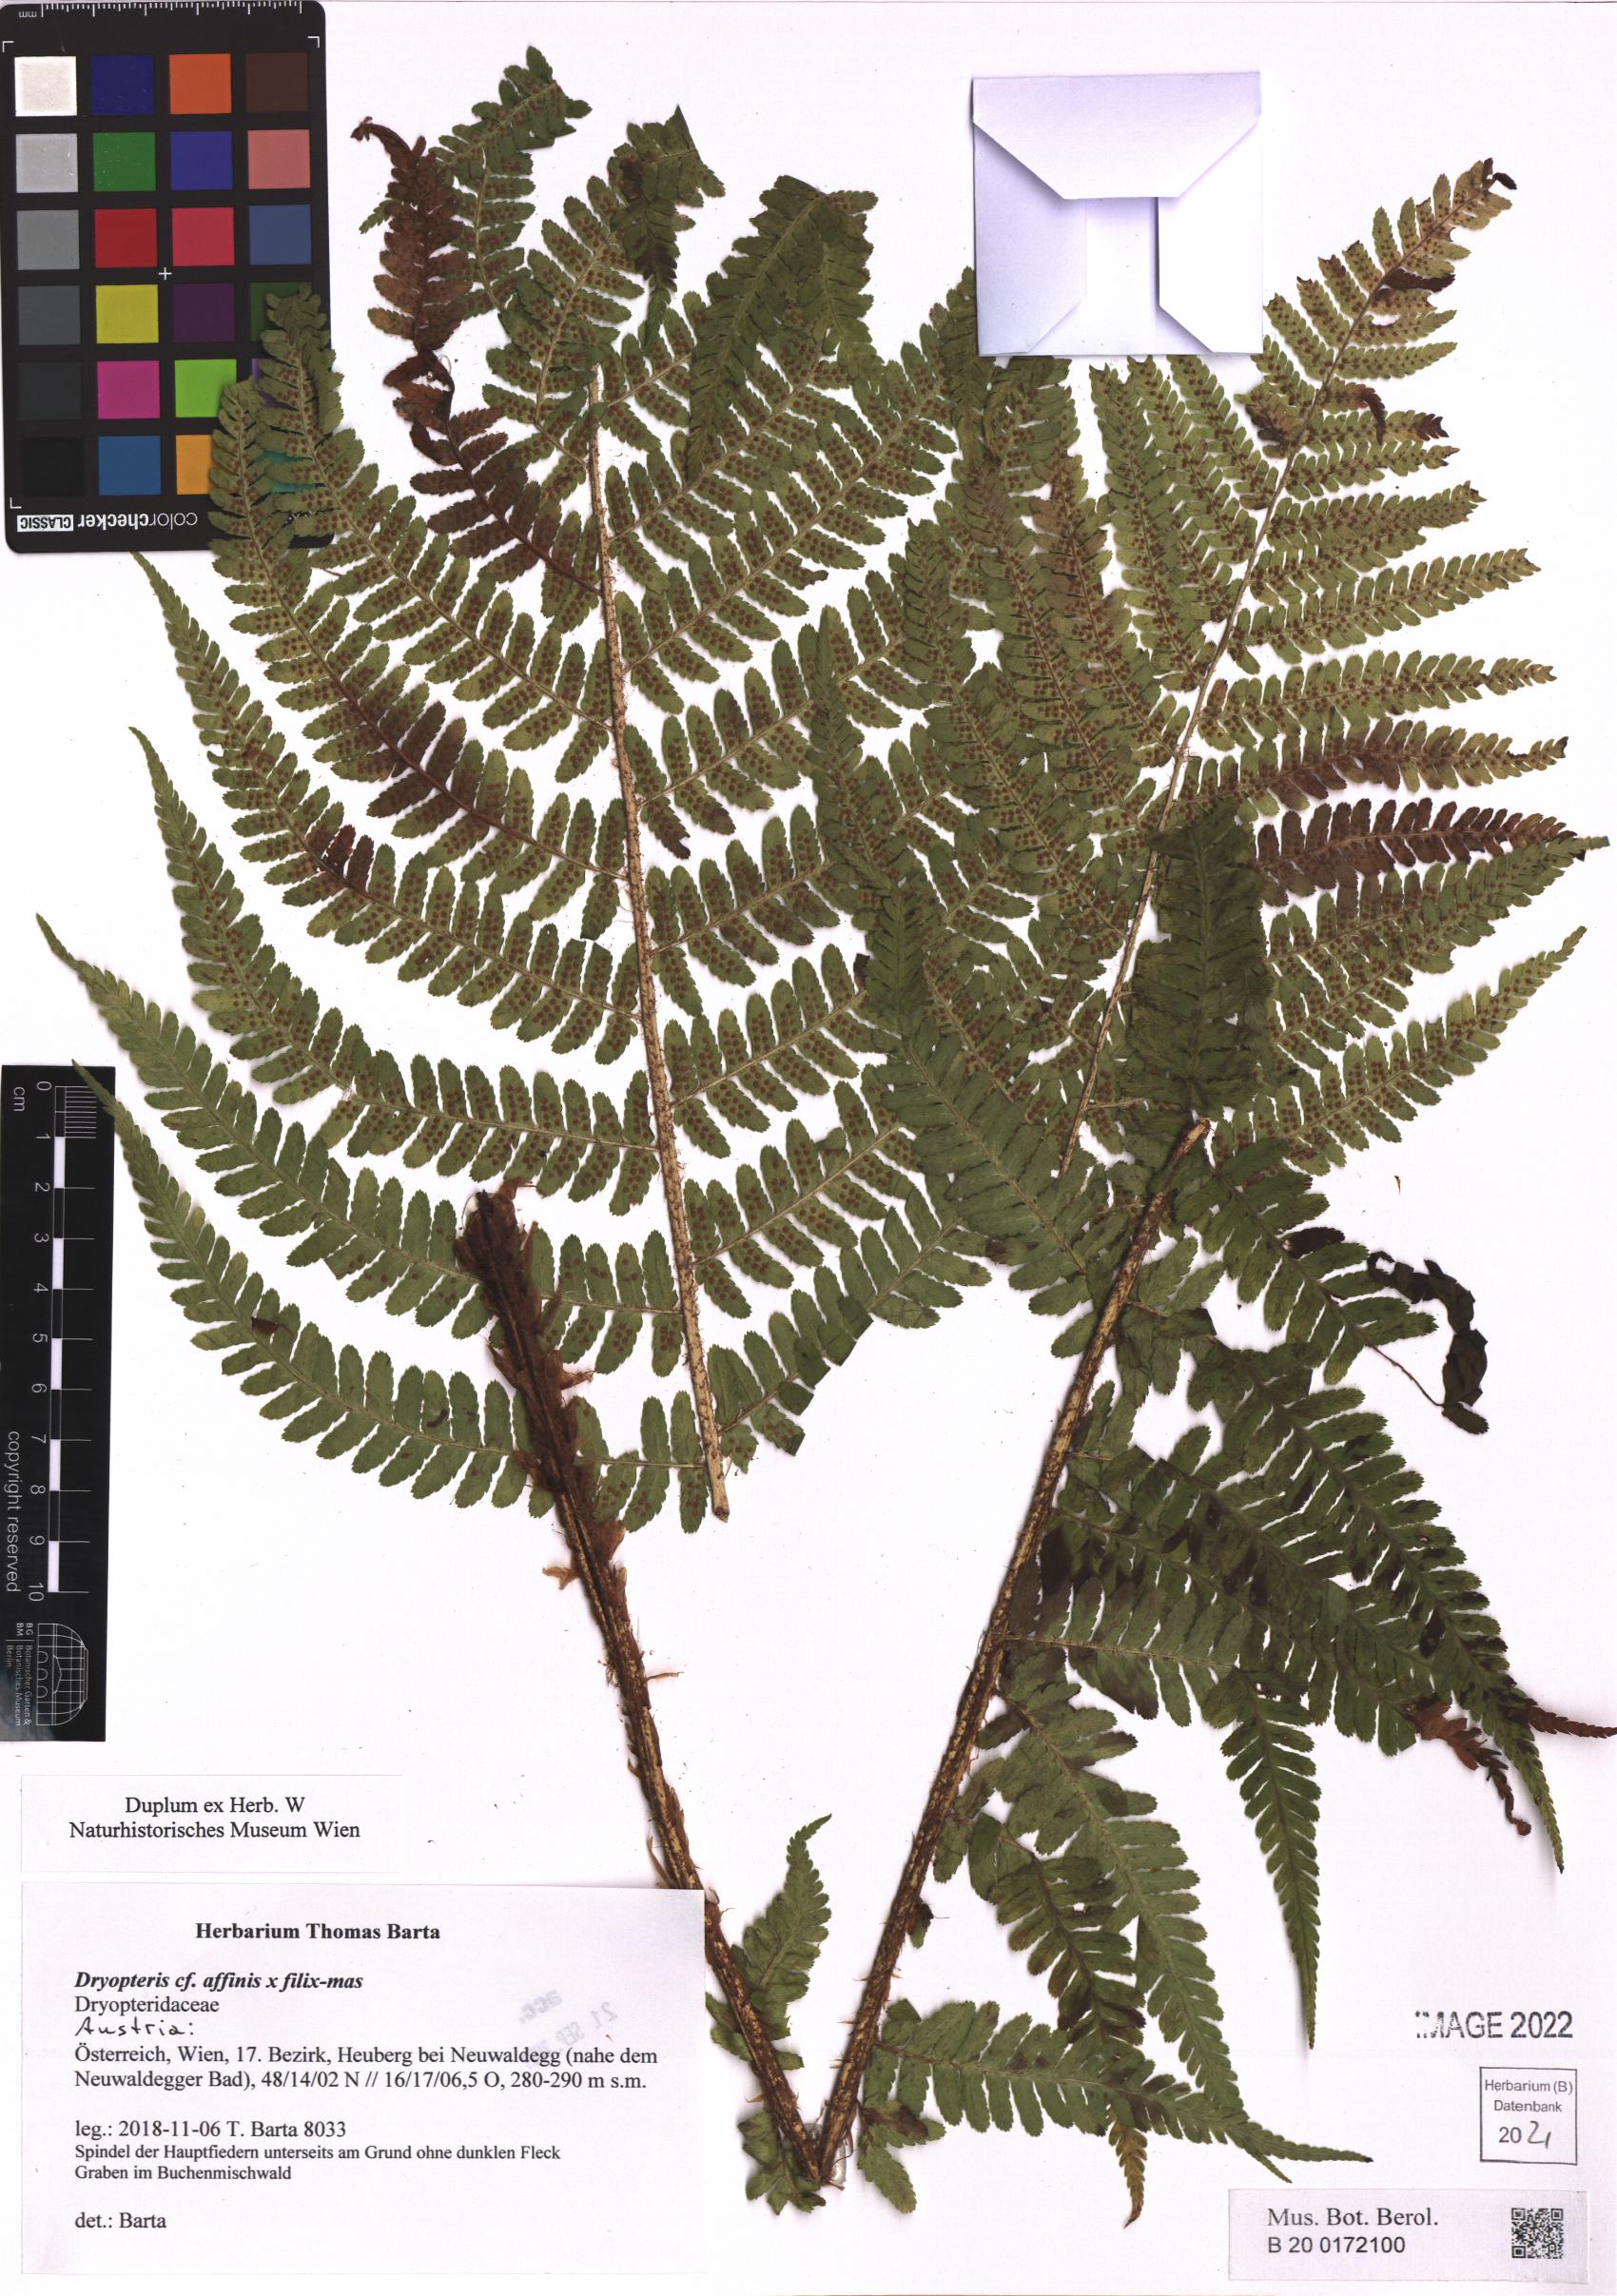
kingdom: Plantae
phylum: Tracheophyta
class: Polypodiopsida
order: Polypodiales
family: Dryopteridaceae
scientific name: Dryopteridaceae
